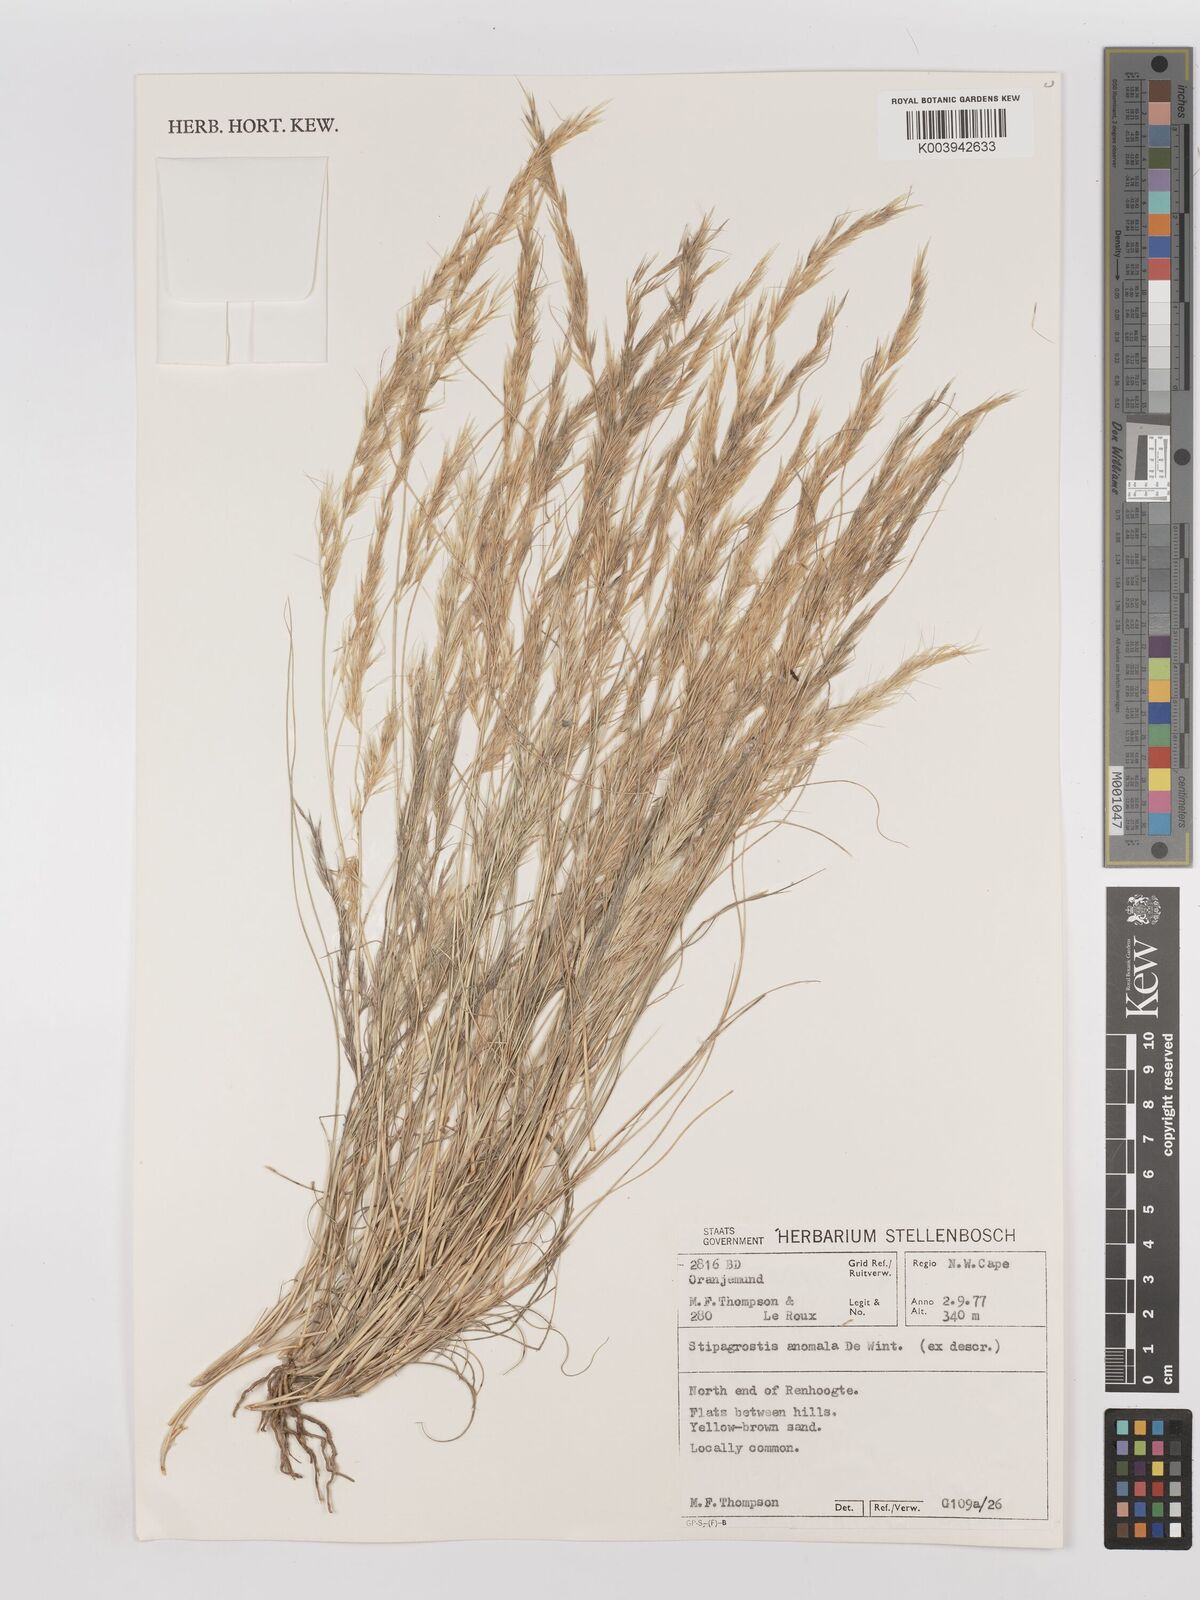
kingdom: Plantae
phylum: Tracheophyta
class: Liliopsida
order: Poales
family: Poaceae
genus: Stipagrostis
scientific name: Stipagrostis anomala
